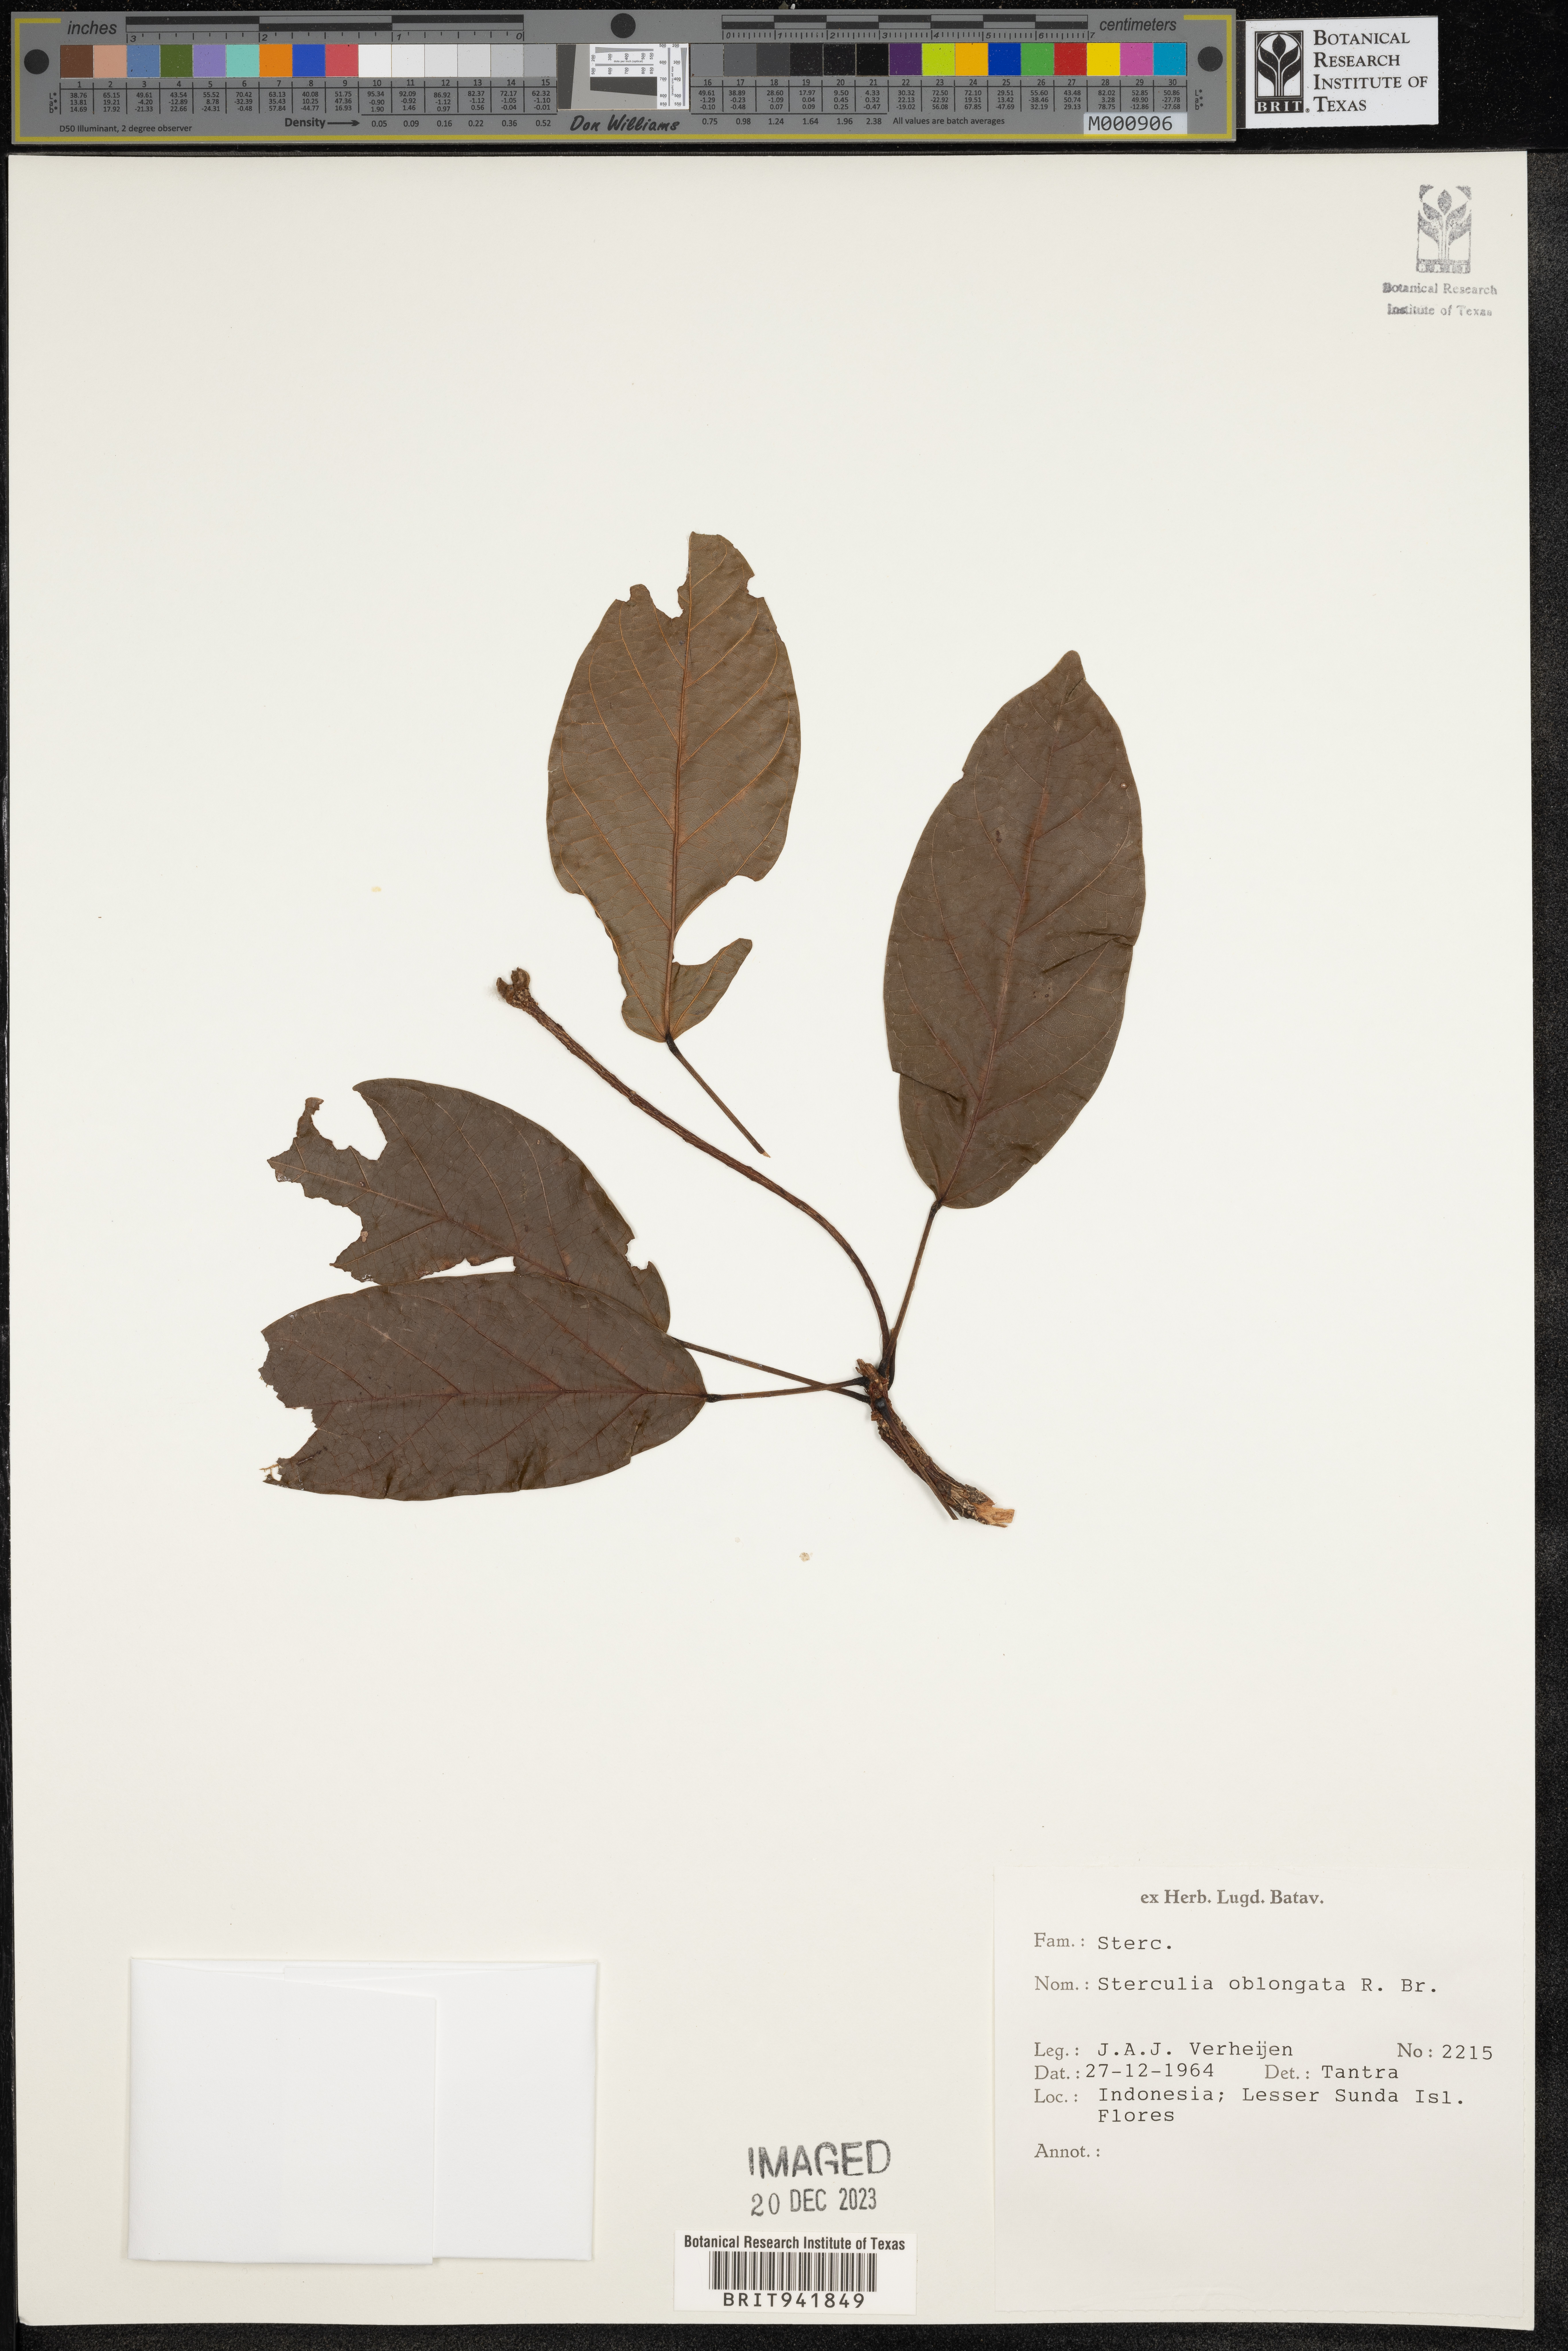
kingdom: Plantae
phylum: Tracheophyta
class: Magnoliopsida
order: Malvales
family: Malvaceae
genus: Sterculia
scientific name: Sterculia
